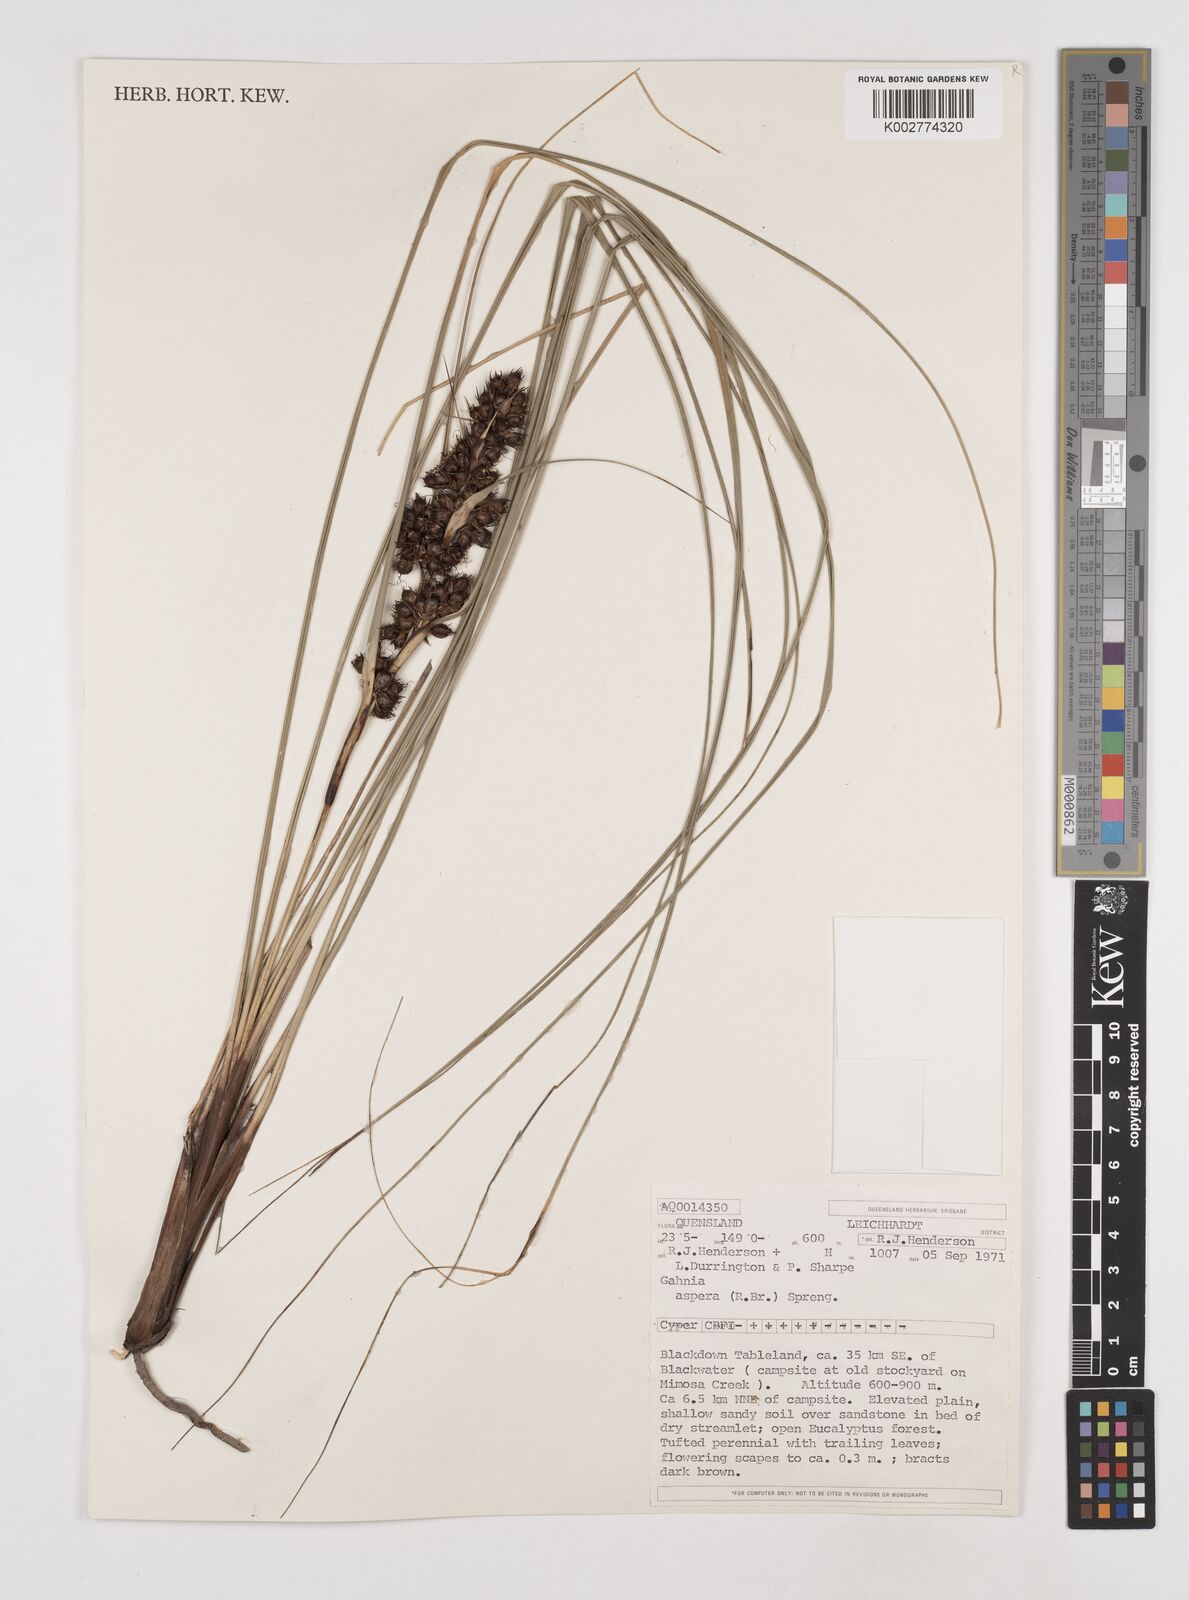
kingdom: Plantae
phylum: Tracheophyta
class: Liliopsida
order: Poales
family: Cyperaceae
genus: Gahnia
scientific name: Gahnia aspera
